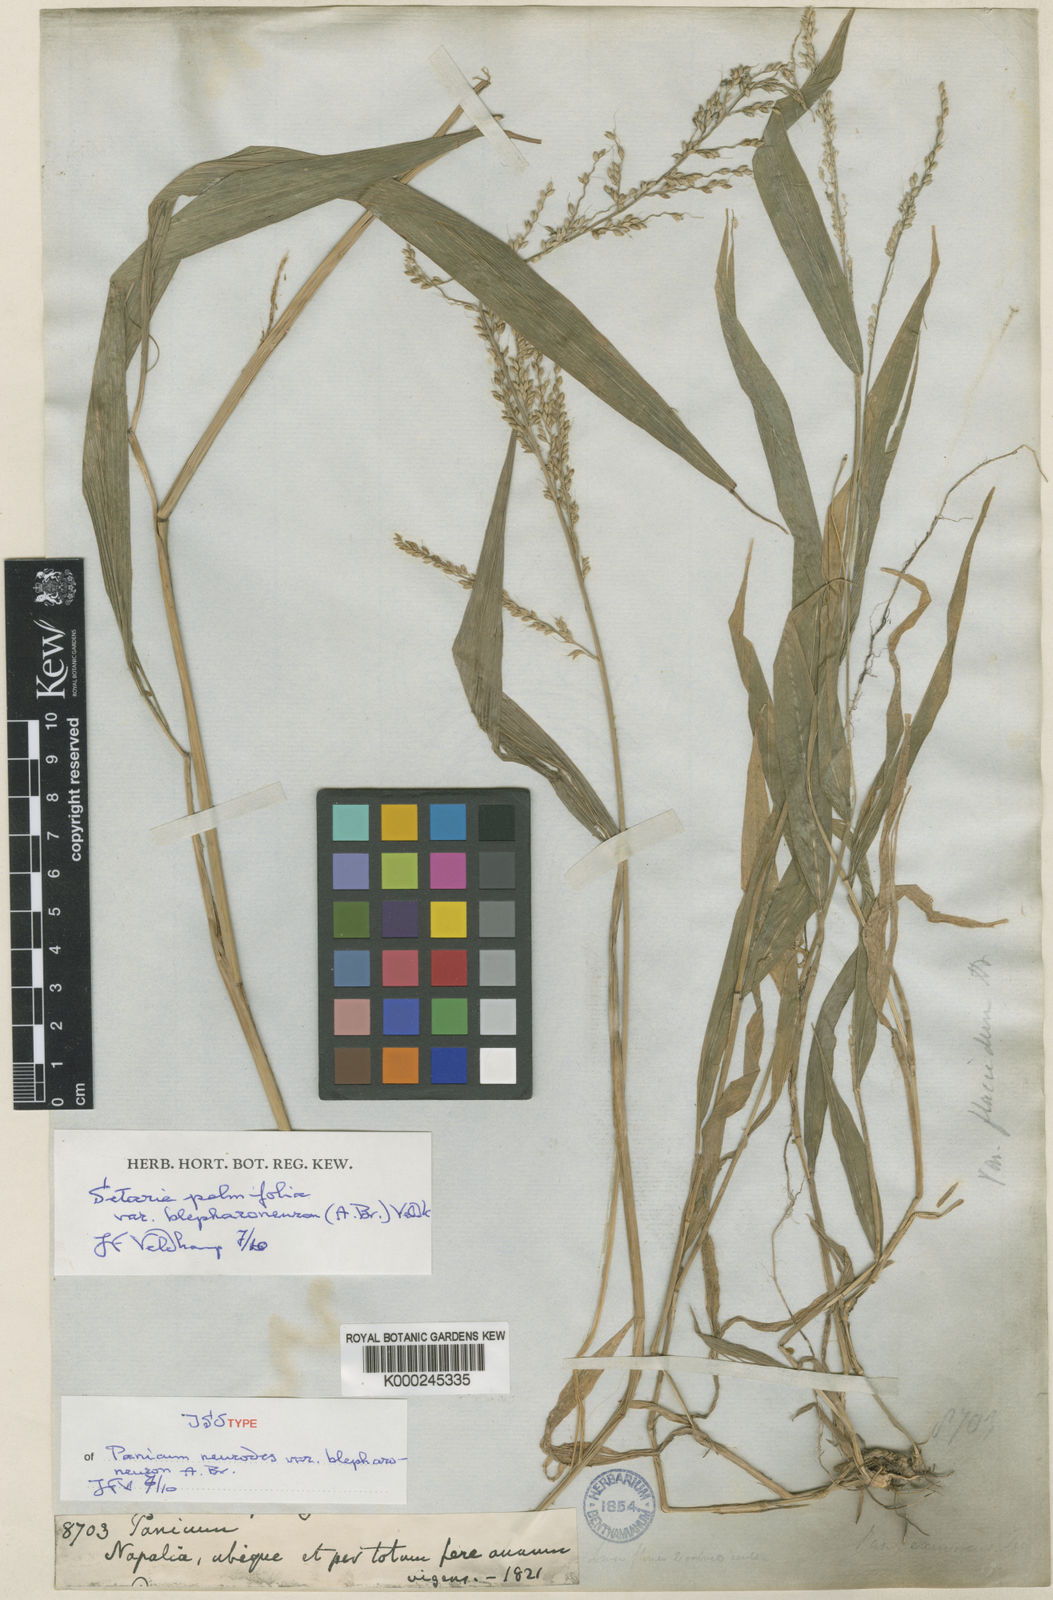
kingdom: Plantae
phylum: Tracheophyta
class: Liliopsida
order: Poales
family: Poaceae
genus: Setaria
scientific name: Setaria plicata
